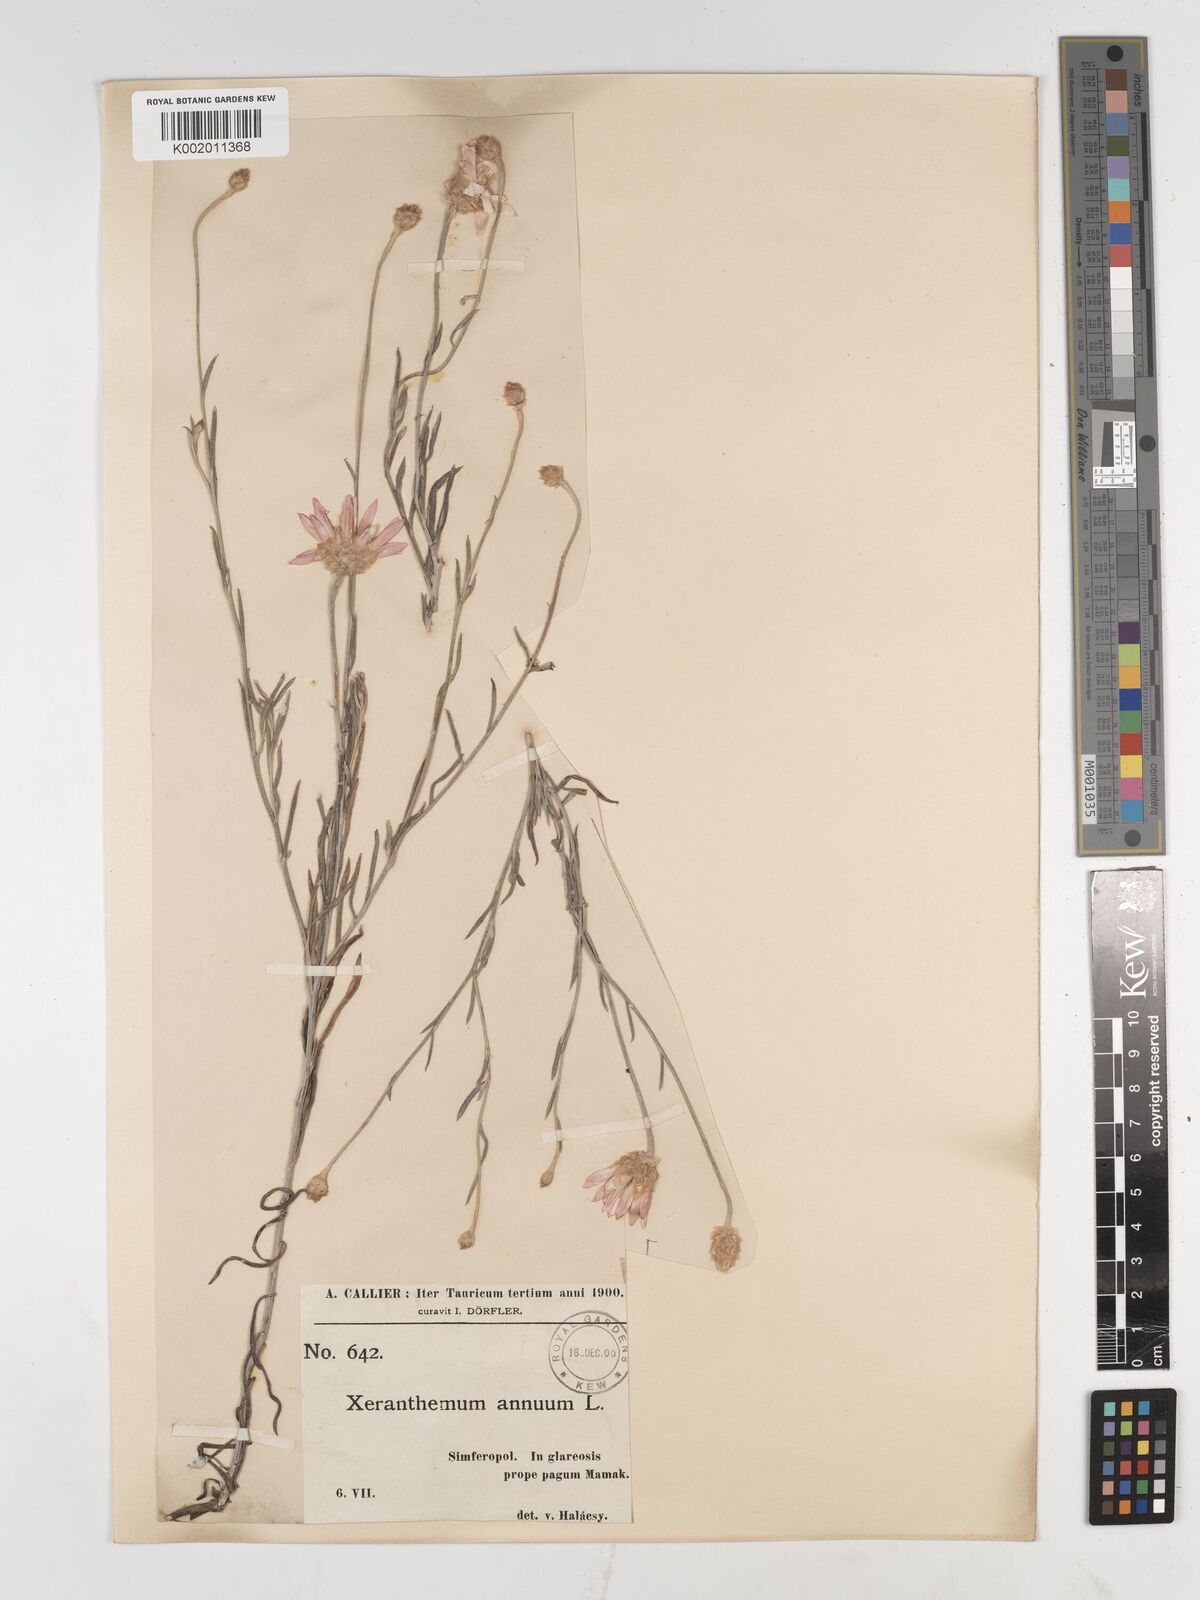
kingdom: Plantae
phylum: Tracheophyta
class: Magnoliopsida
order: Asterales
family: Asteraceae
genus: Xeranthemum
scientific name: Xeranthemum annuum
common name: Immortelle
